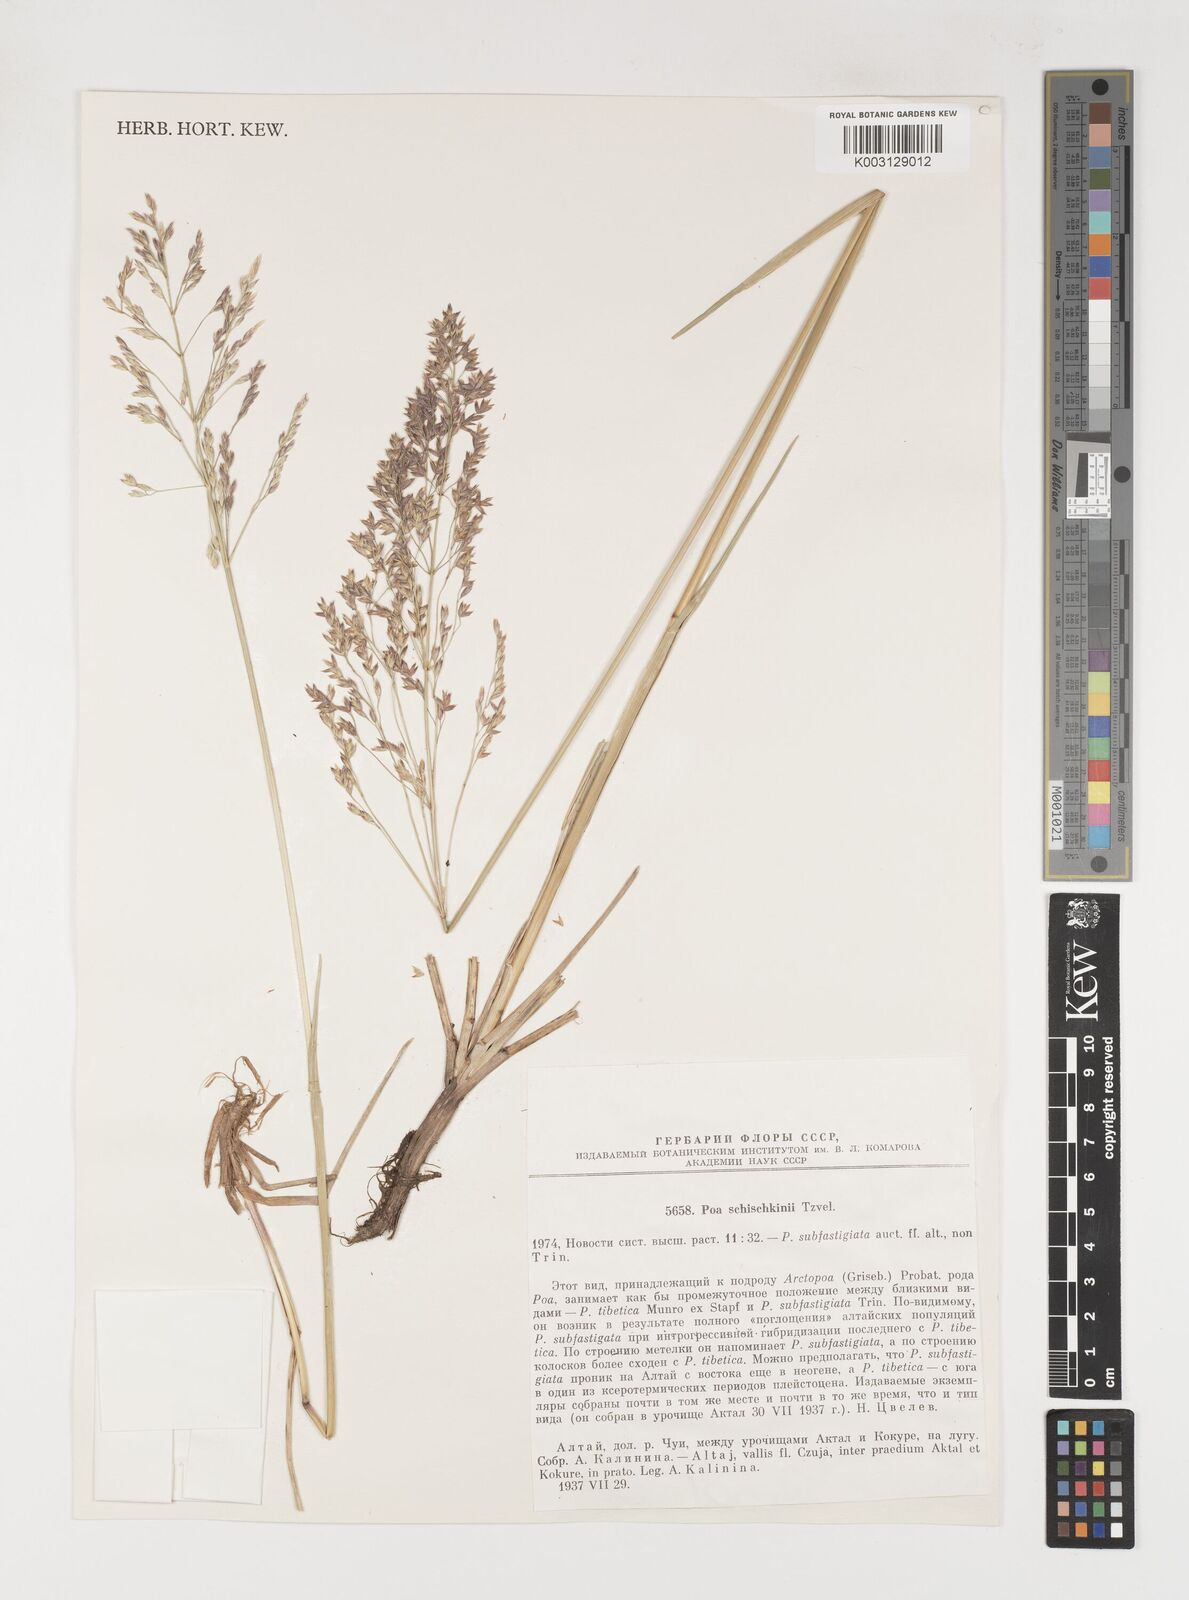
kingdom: Plantae
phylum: Tracheophyta
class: Liliopsida
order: Poales
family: Poaceae
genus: Arctopoa
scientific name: Arctopoa subfastigiata
